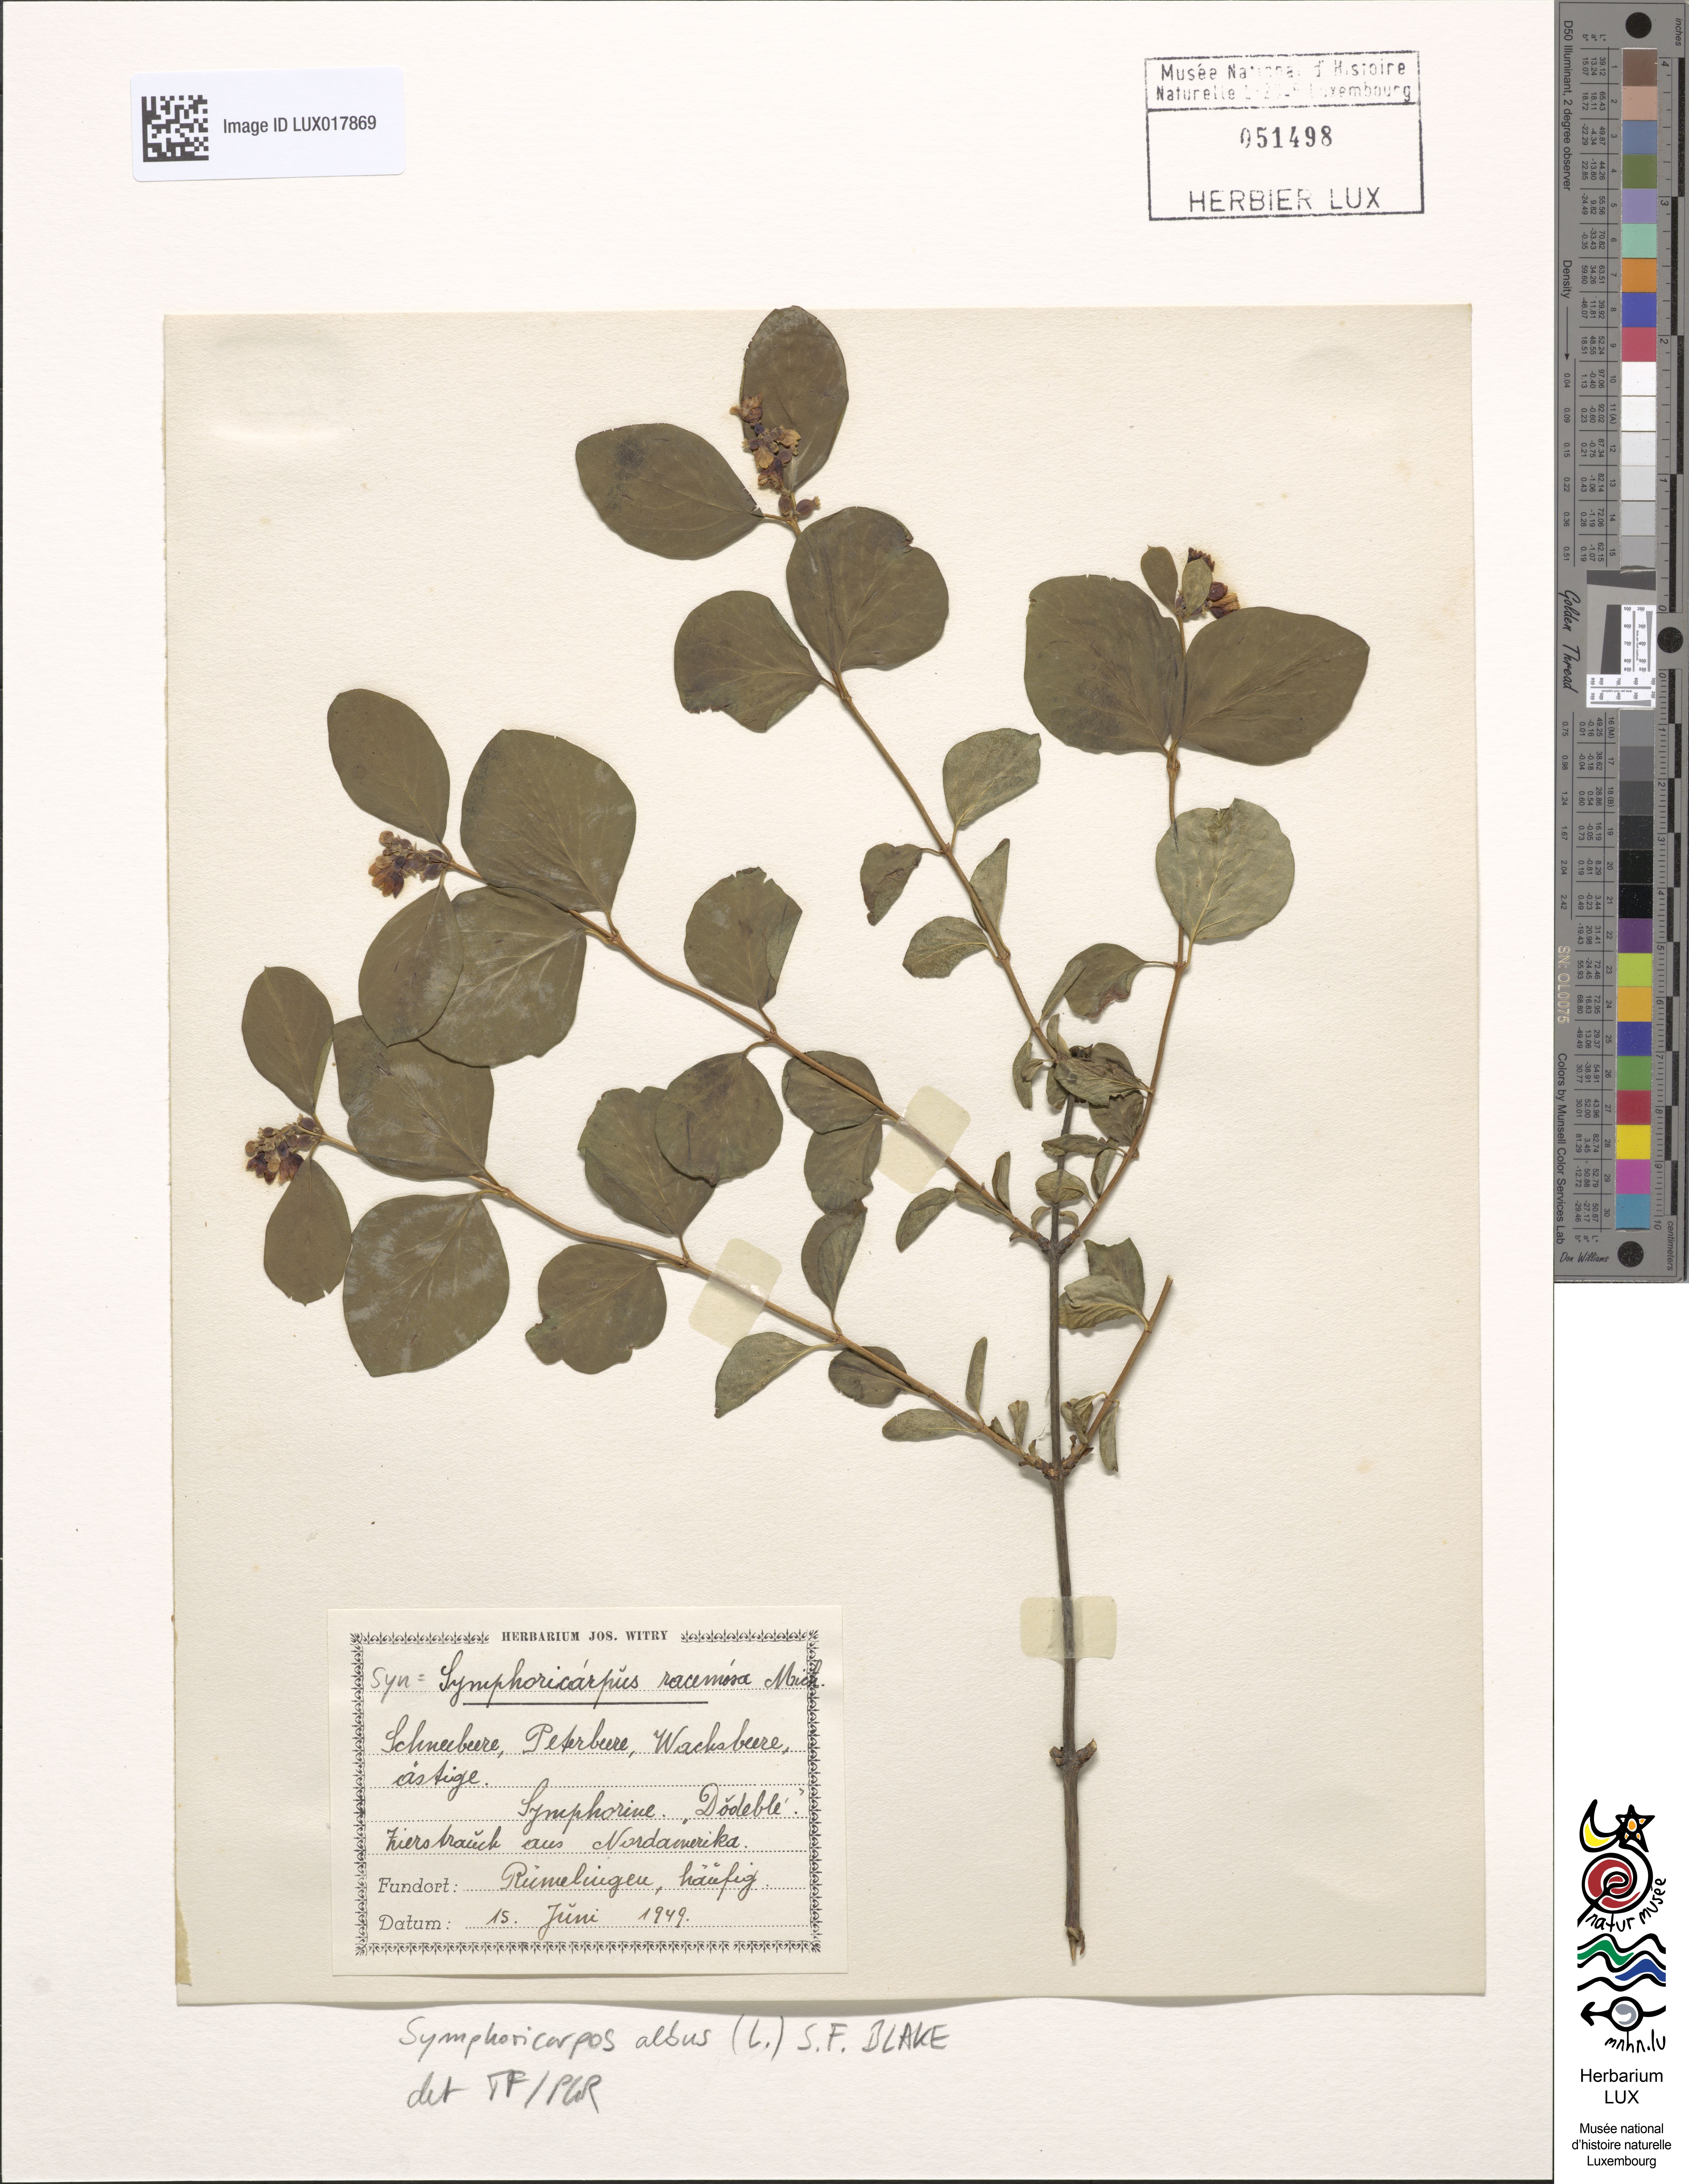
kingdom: Plantae
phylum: Tracheophyta
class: Magnoliopsida
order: Dipsacales
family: Caprifoliaceae
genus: Symphoricarpos
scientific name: Symphoricarpos albus
